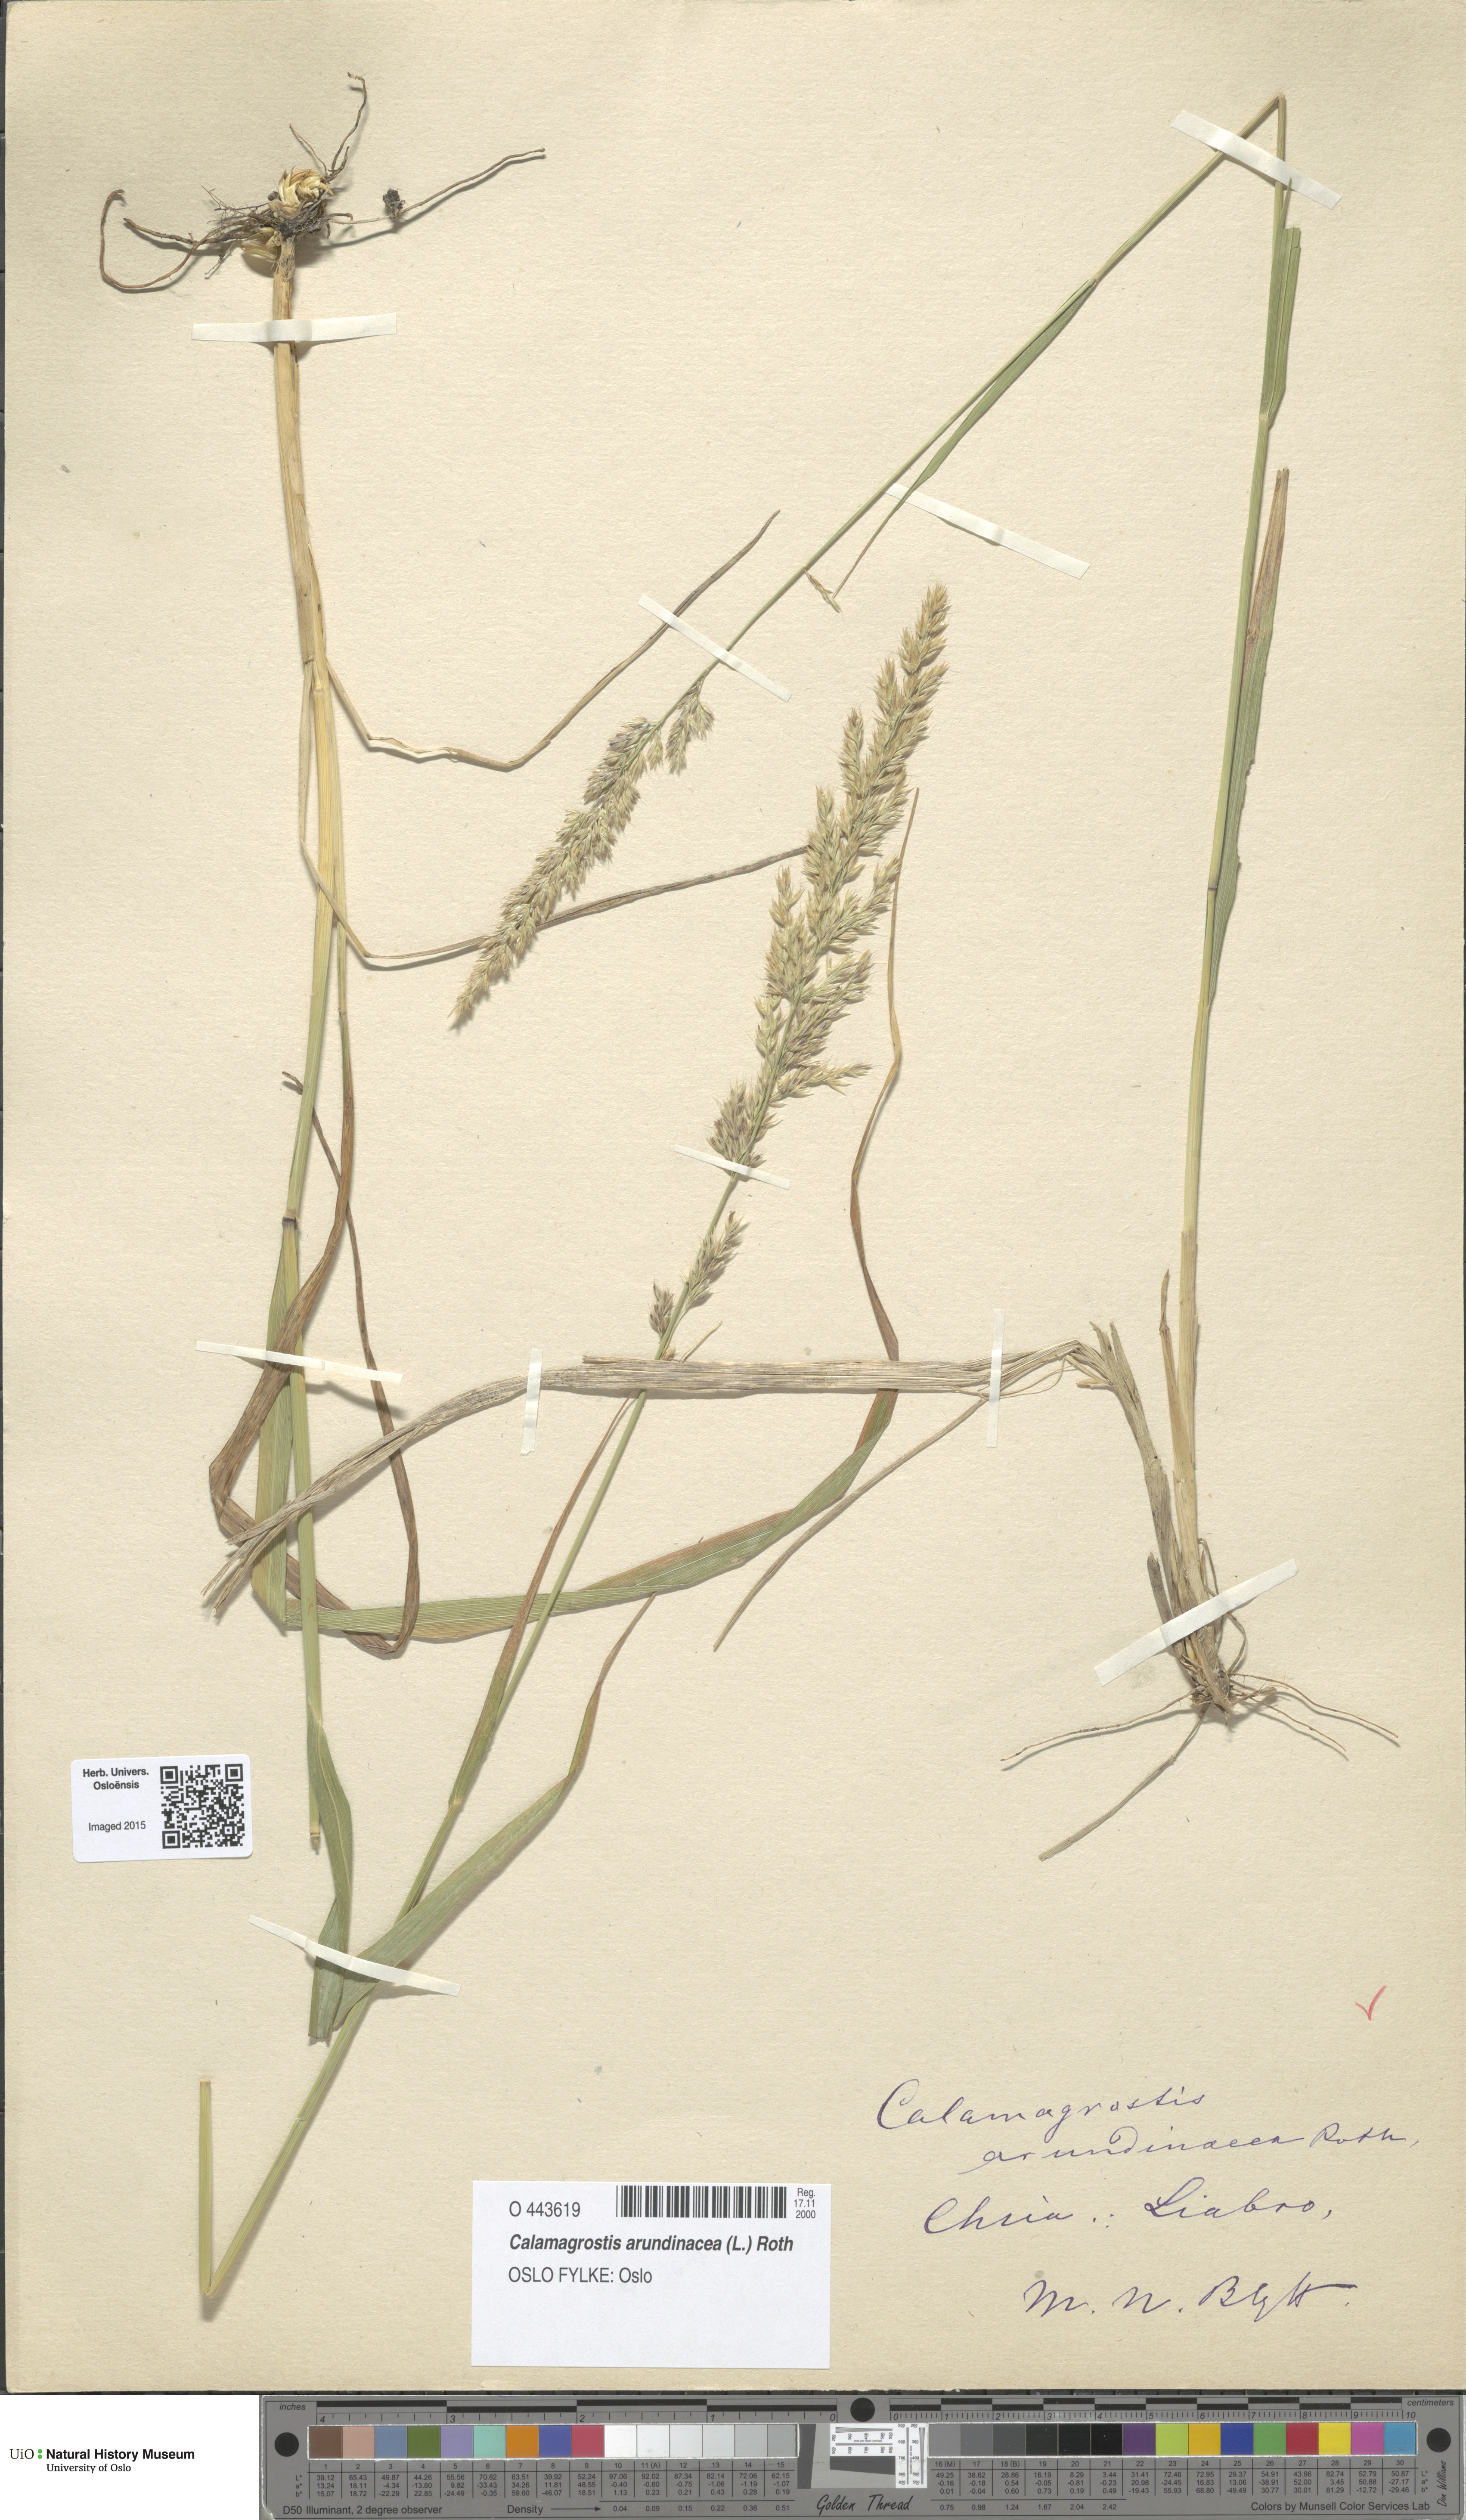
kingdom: Plantae
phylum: Tracheophyta
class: Liliopsida
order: Poales
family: Poaceae
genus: Calamagrostis
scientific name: Calamagrostis arundinacea
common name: Metskastik
